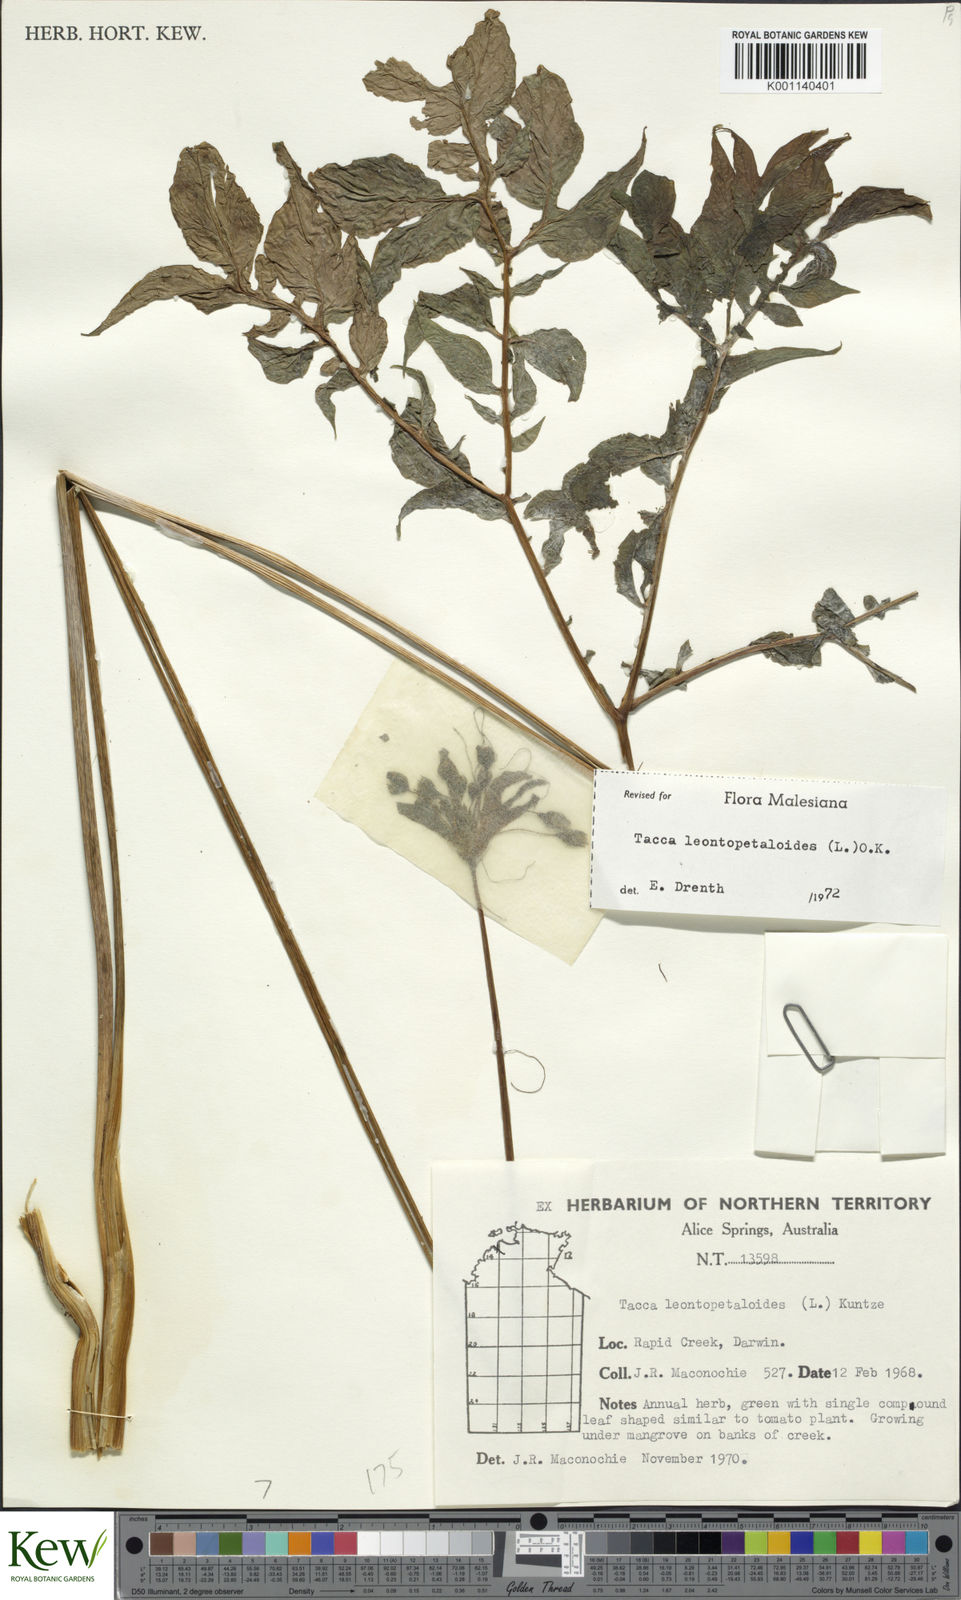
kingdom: Plantae
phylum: Tracheophyta
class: Liliopsida
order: Dioscoreales
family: Dioscoreaceae
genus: Tacca
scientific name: Tacca leontopetaloides
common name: Arrowroot
